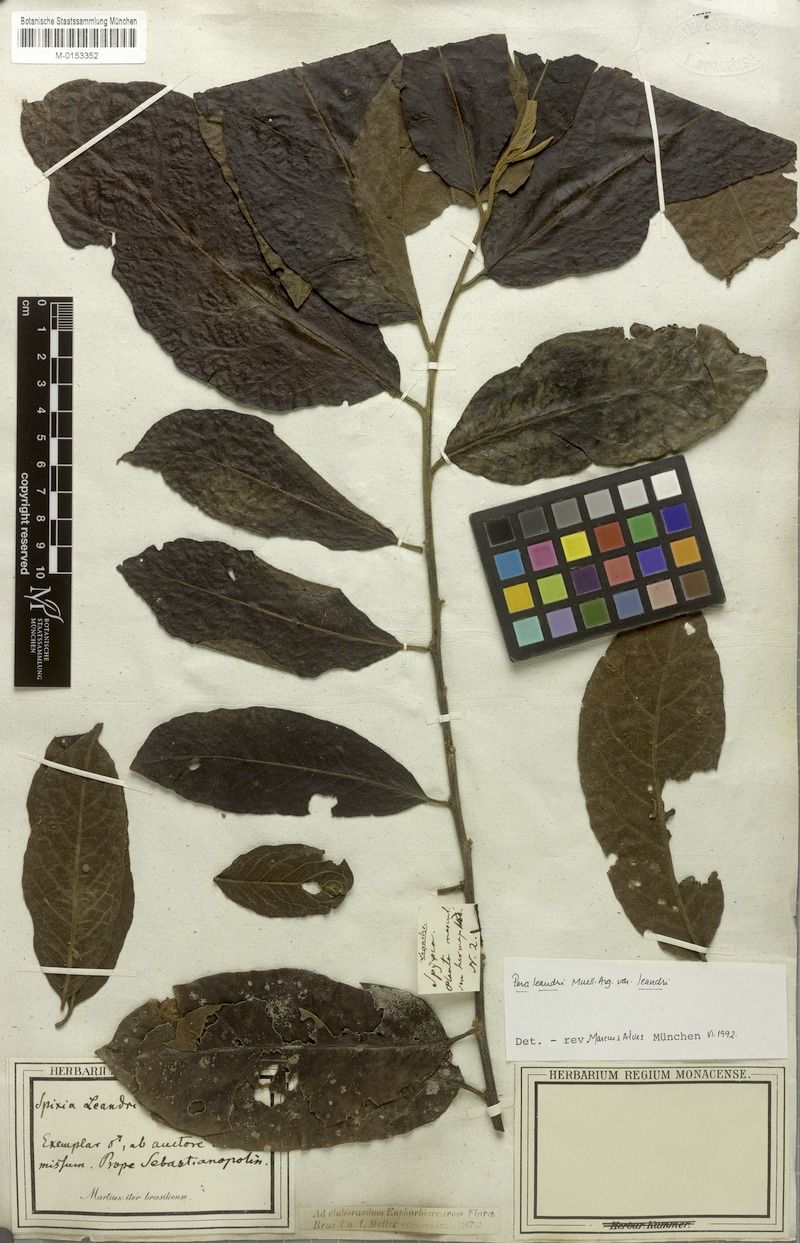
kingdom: Plantae
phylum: Tracheophyta
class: Magnoliopsida
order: Malpighiales
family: Peraceae
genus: Pera
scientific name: Pera heteranthera
